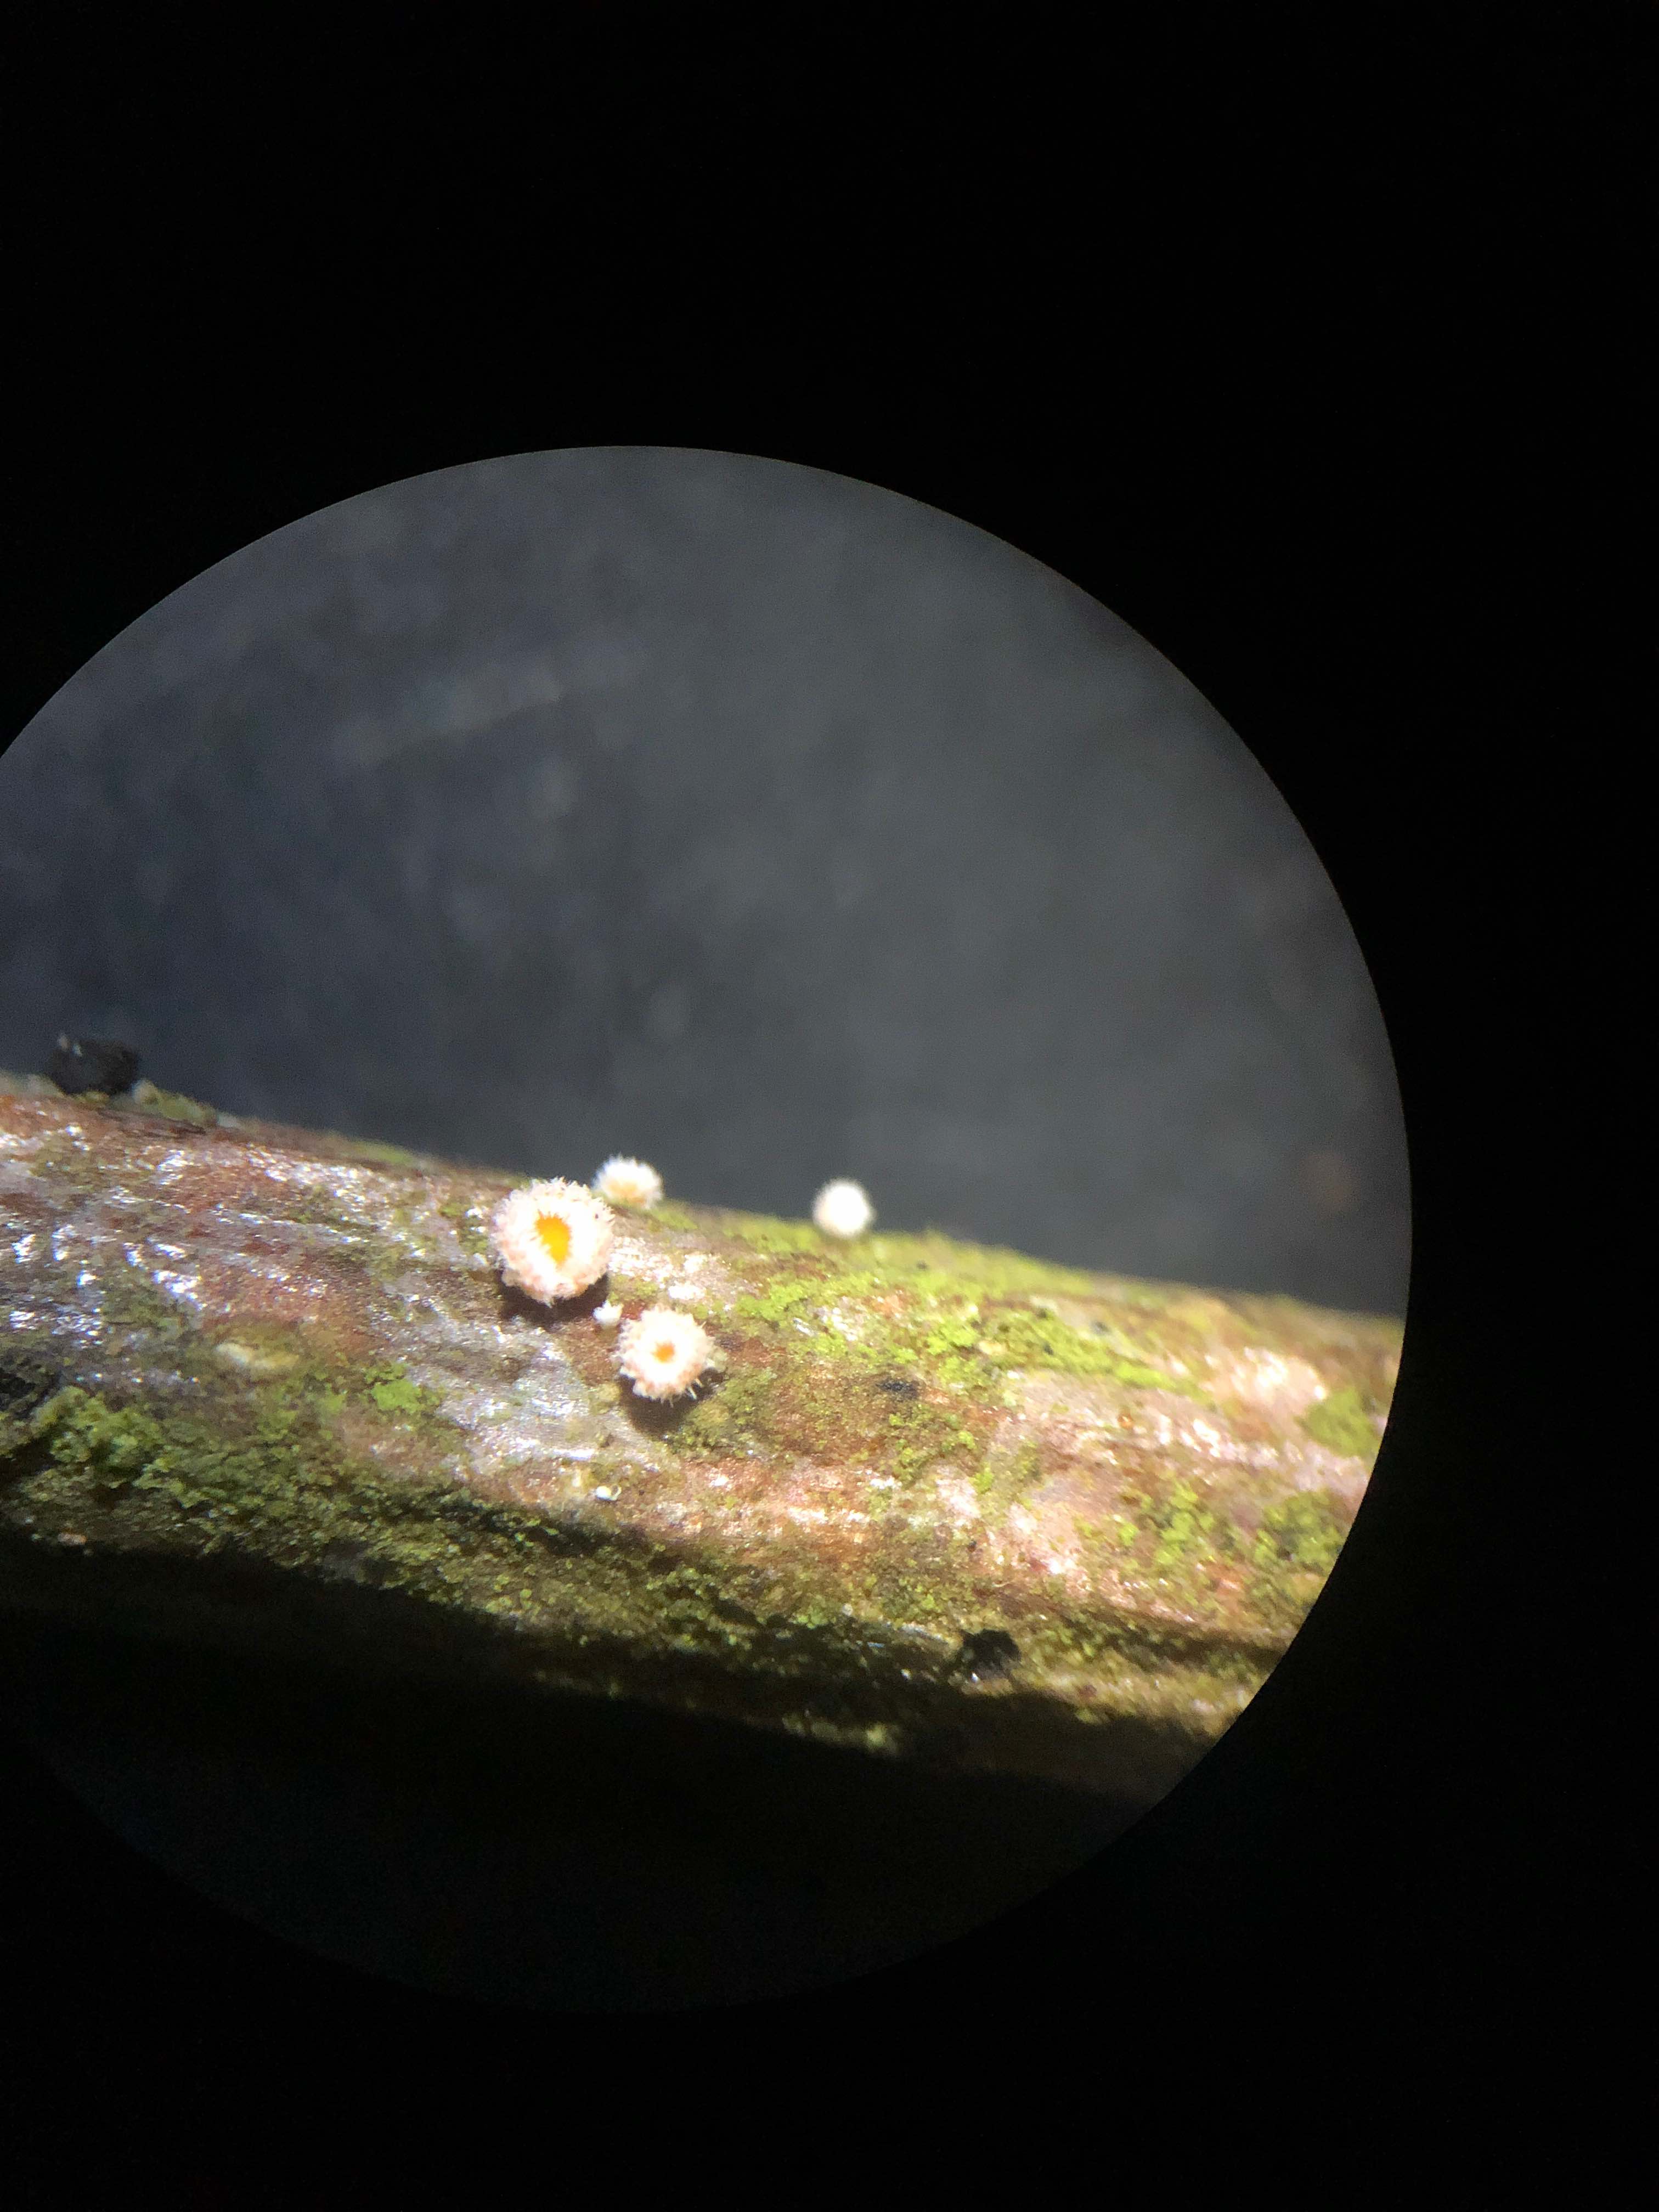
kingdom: Fungi
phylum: Ascomycota
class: Leotiomycetes
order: Helotiales
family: Lachnaceae
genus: Capitotricha
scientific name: Capitotricha bicolor
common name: prægtig frynseskive
